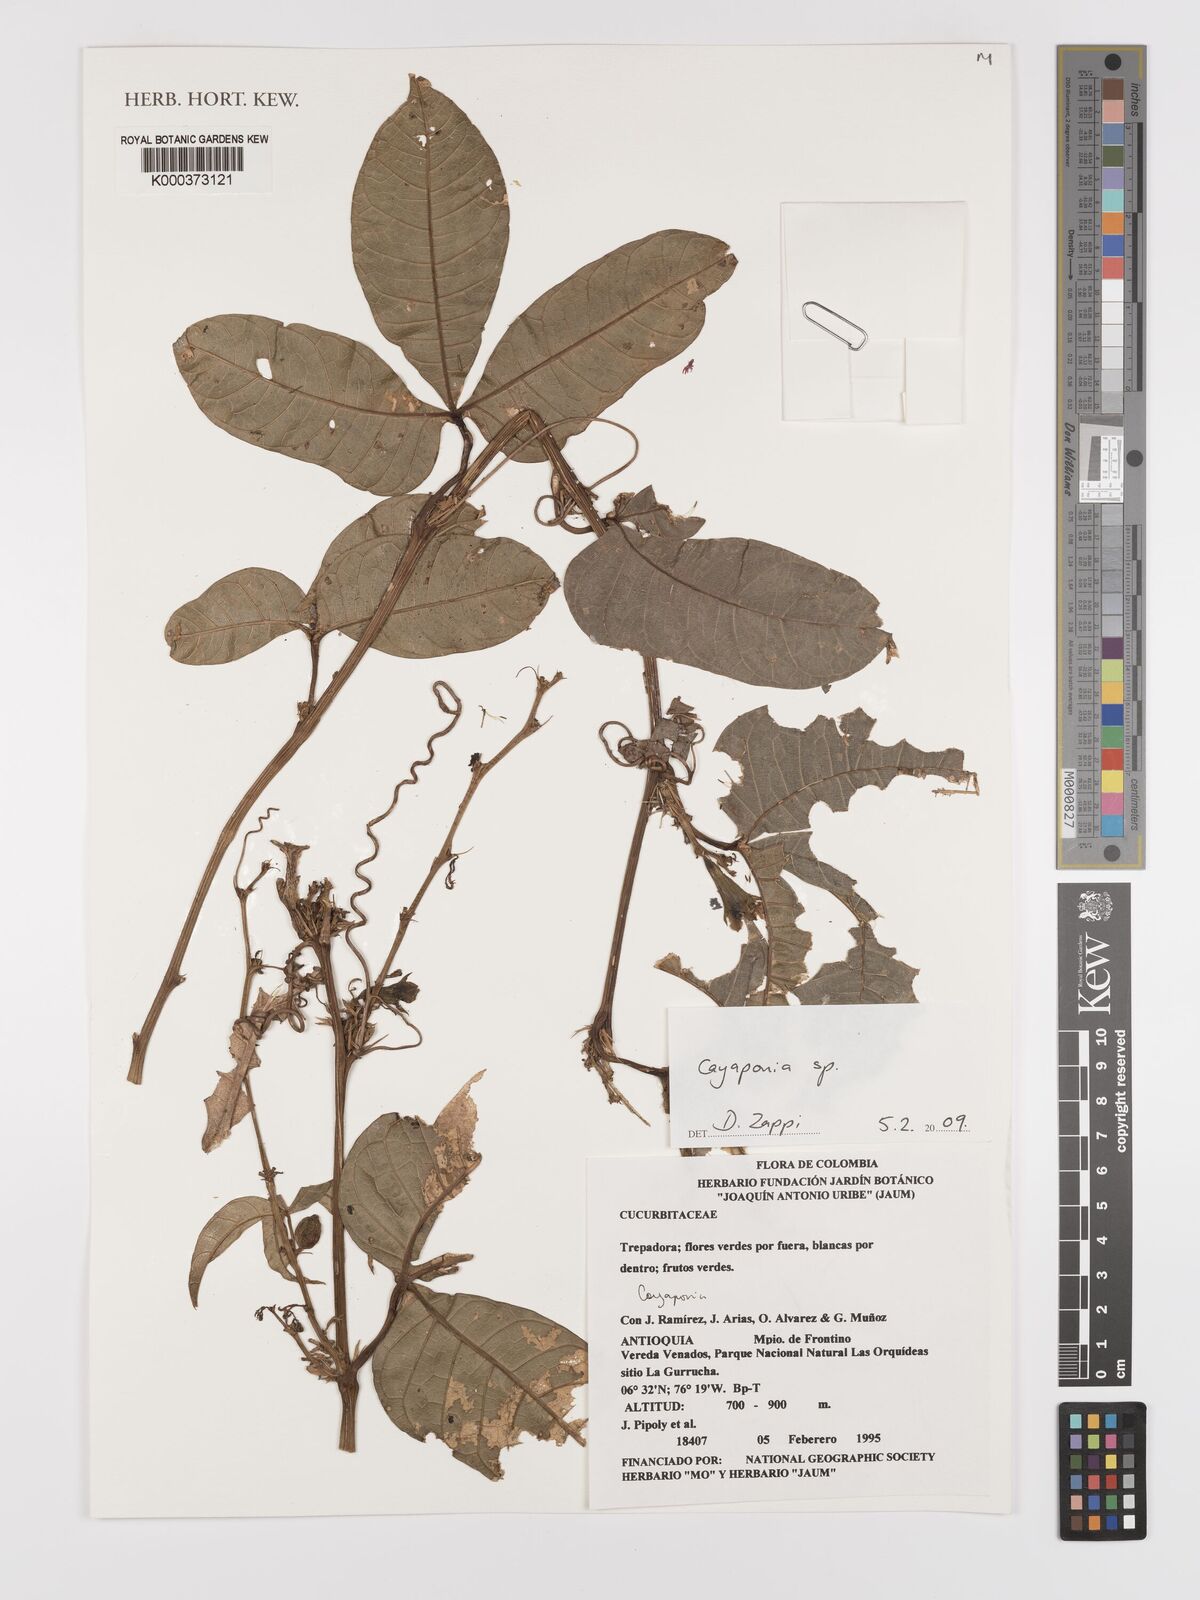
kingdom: Plantae
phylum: Tracheophyta
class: Magnoliopsida
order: Cucurbitales
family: Cucurbitaceae
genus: Cayaponia
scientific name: Cayaponia
